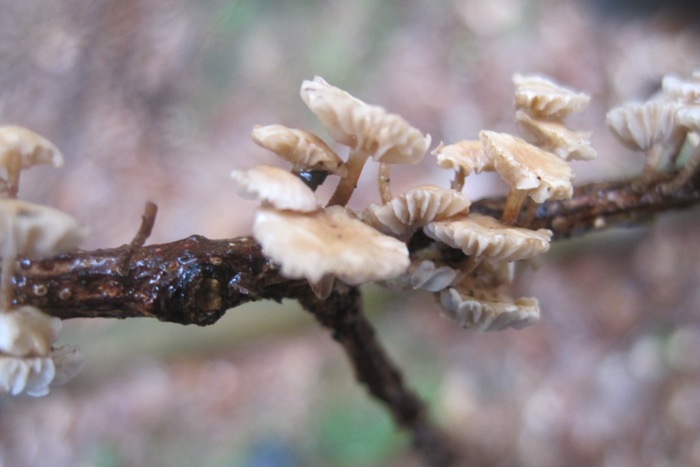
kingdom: Fungi
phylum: Basidiomycota
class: Agaricomycetes
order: Agaricales
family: Omphalotaceae
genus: Collybiopsis
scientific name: Collybiopsis ramealis
